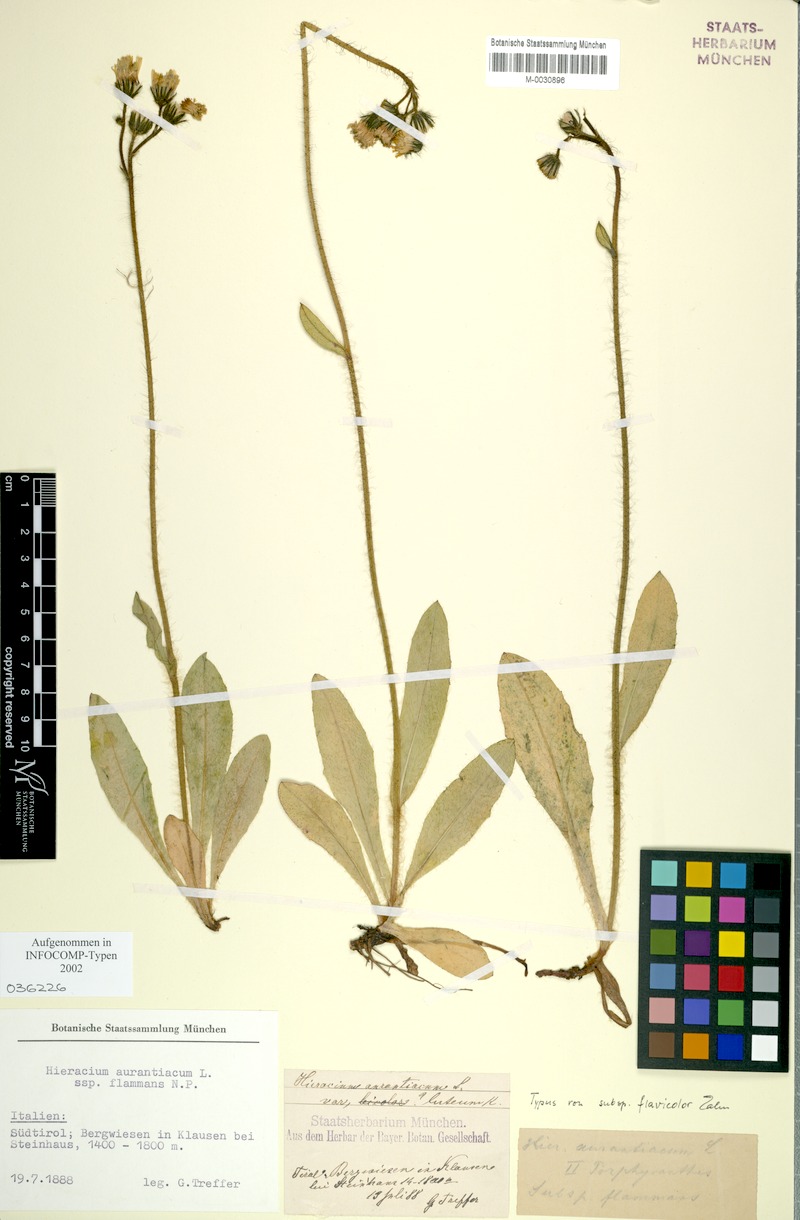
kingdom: Plantae
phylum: Tracheophyta
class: Magnoliopsida
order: Asterales
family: Asteraceae
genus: Pilosella
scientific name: Pilosella aurantiaca
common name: Fox-and-cubs
